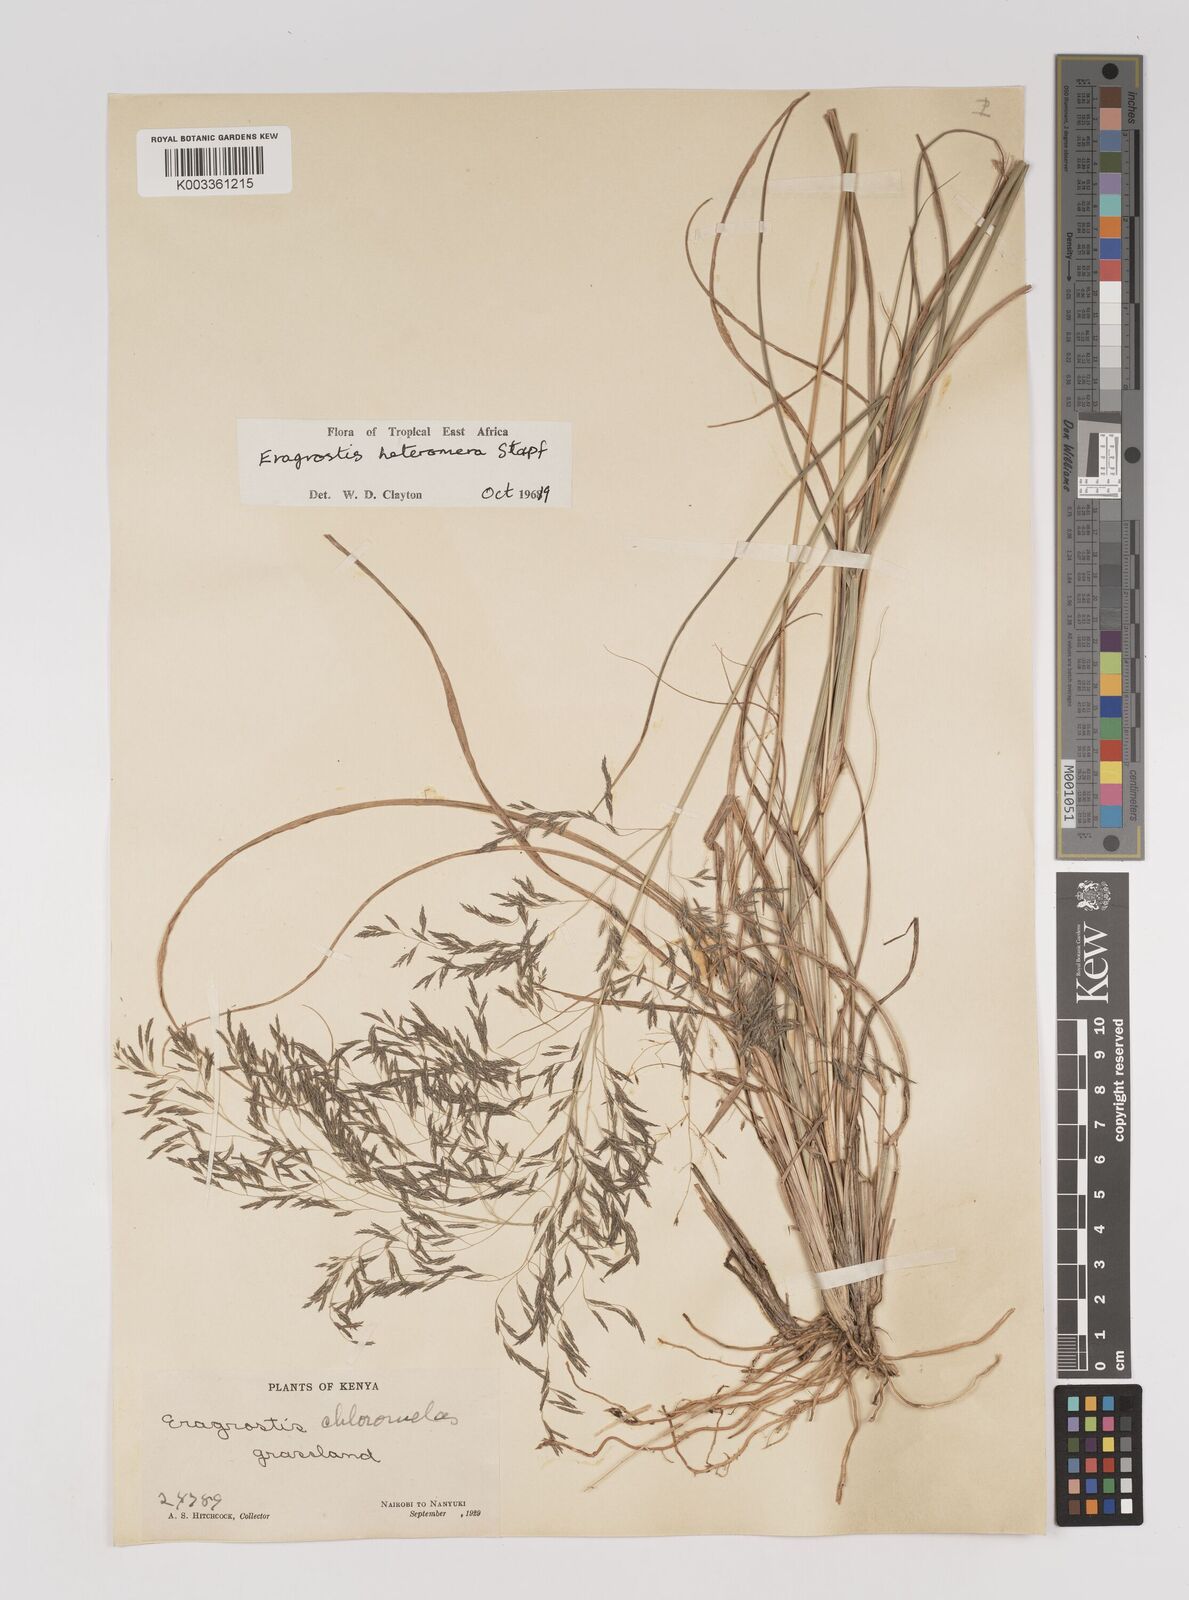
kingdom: Plantae
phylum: Tracheophyta
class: Liliopsida
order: Poales
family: Poaceae
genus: Eragrostis
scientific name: Eragrostis heteromera
